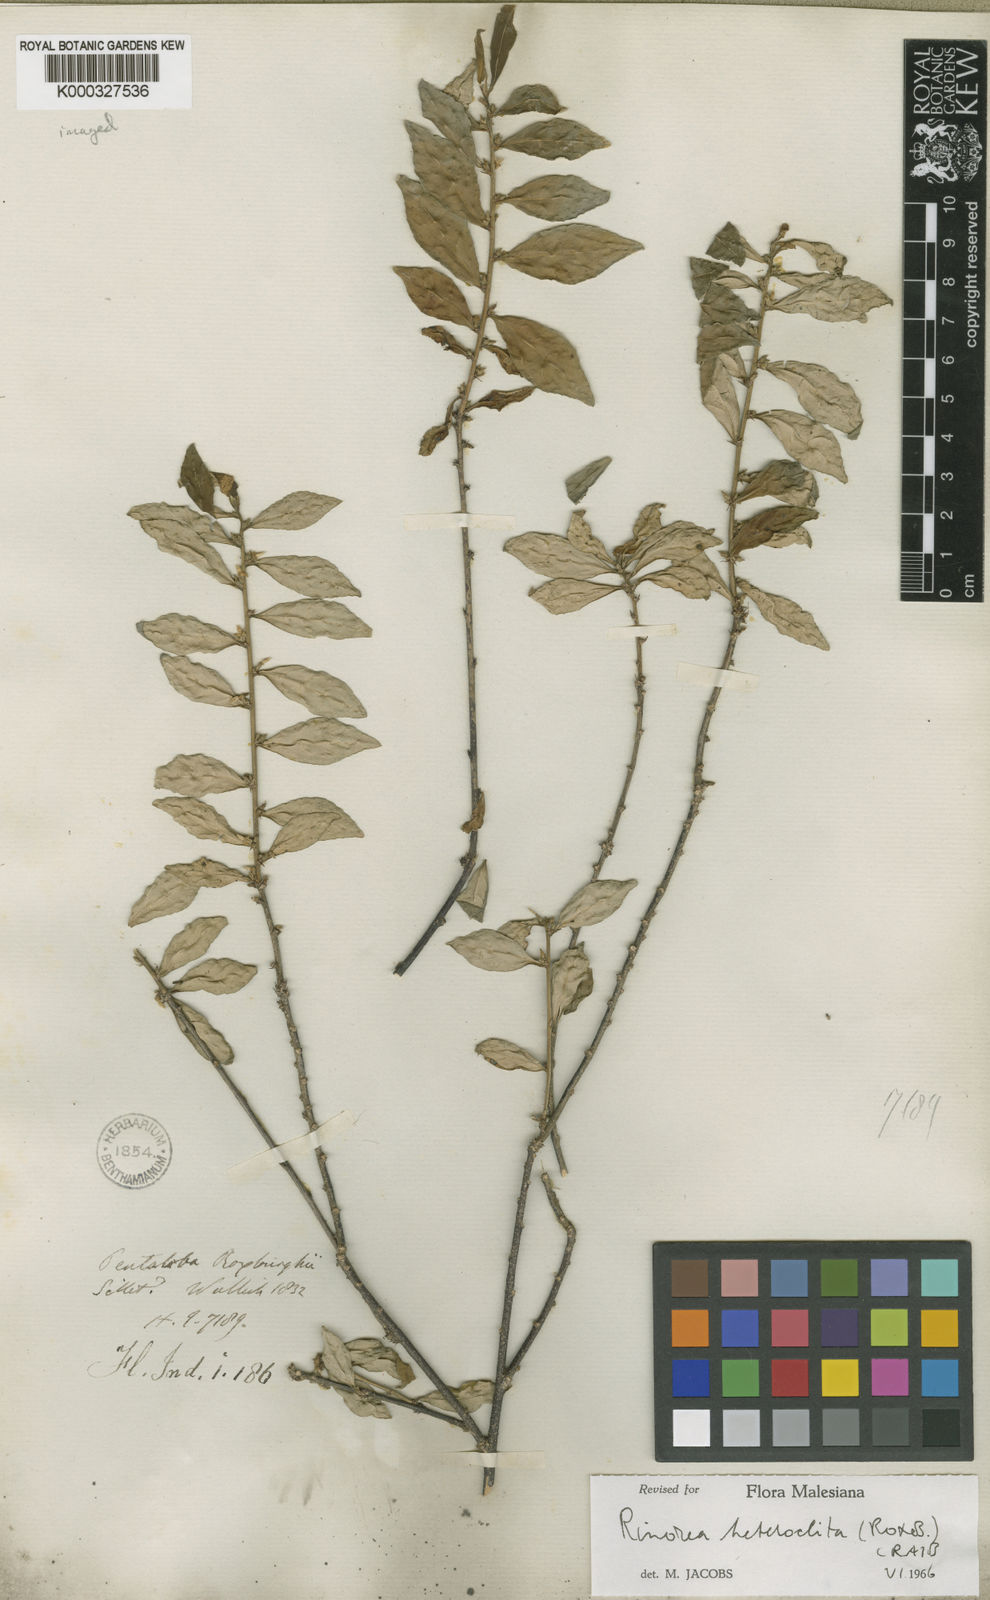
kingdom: Plantae
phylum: Tracheophyta
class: Magnoliopsida
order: Malpighiales
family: Violaceae
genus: Rinorea
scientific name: Rinorea heteroclita
